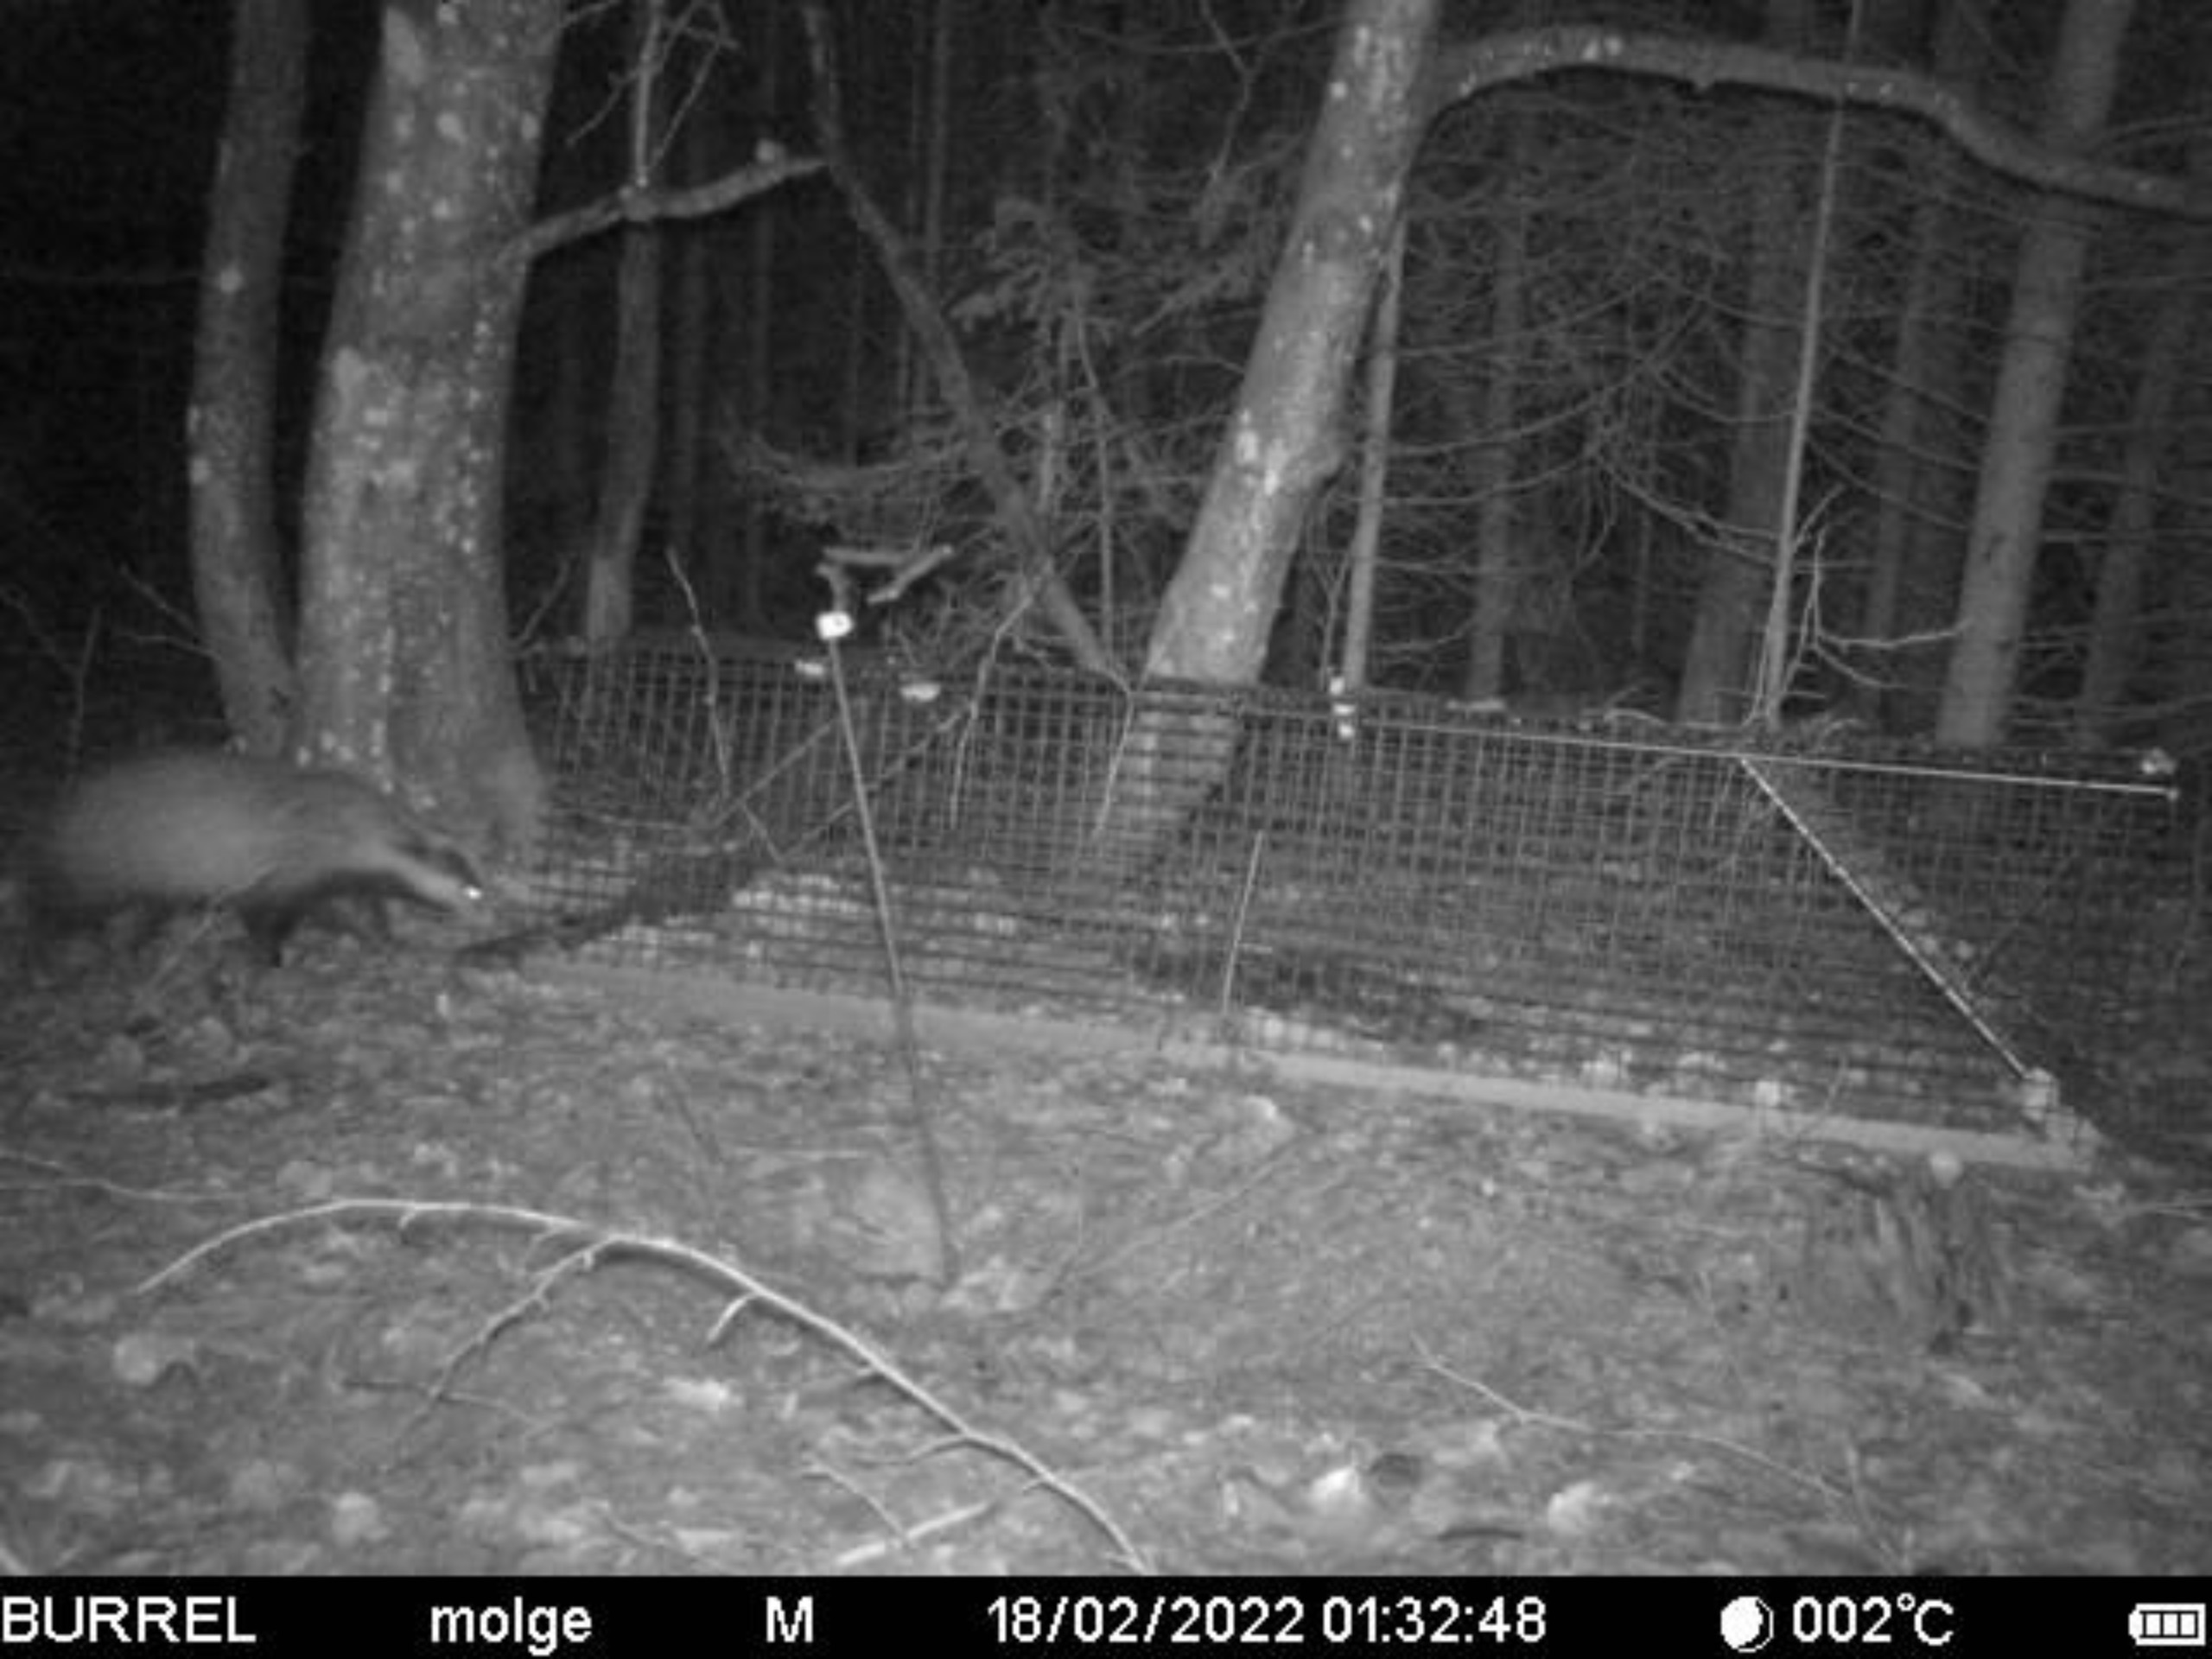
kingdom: Animalia
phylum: Chordata
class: Mammalia
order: Carnivora
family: Mustelidae
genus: Meles
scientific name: Meles meles
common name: Grævling
